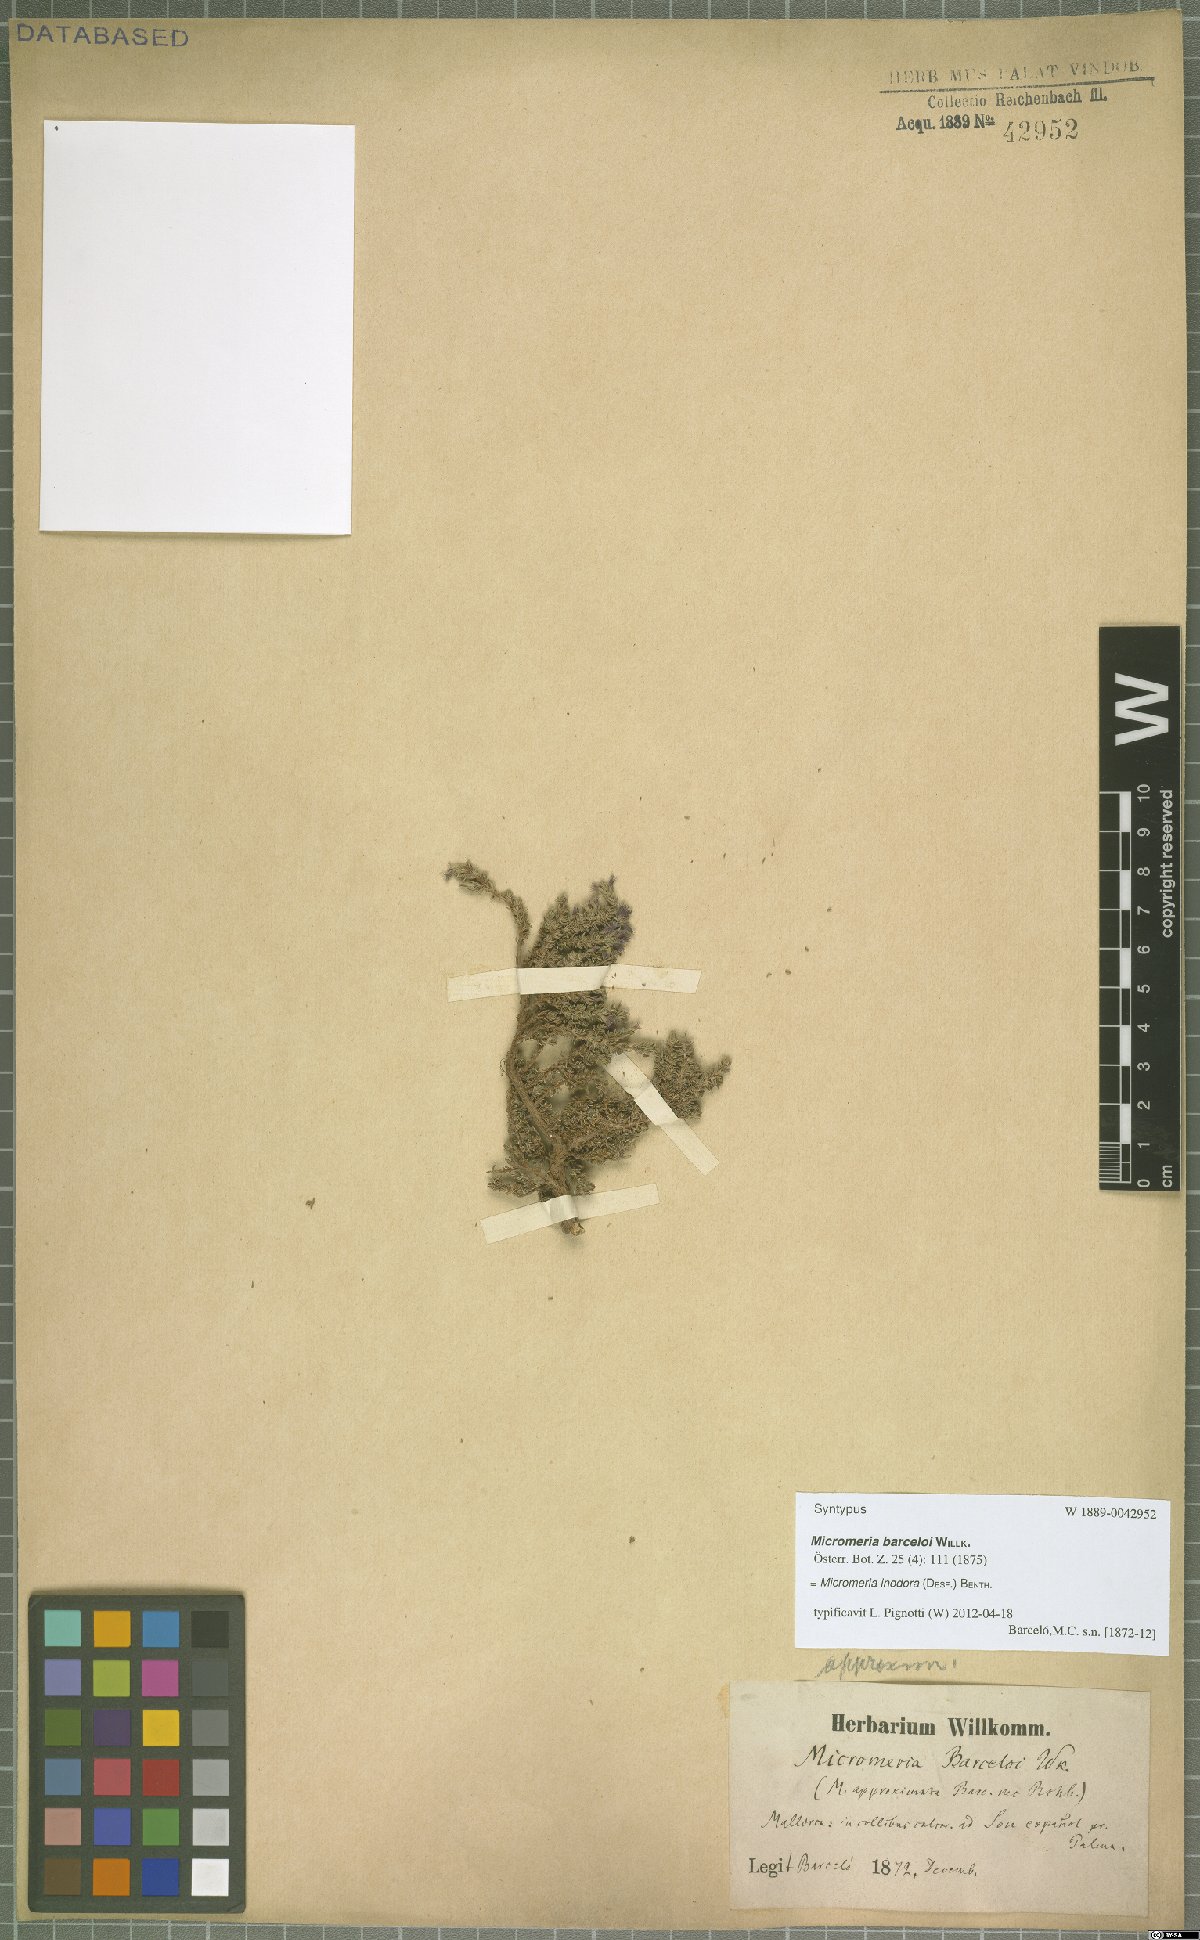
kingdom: Plantae
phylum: Tracheophyta
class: Magnoliopsida
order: Lamiales
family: Lamiaceae
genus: Micromeria
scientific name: Micromeria inodora
